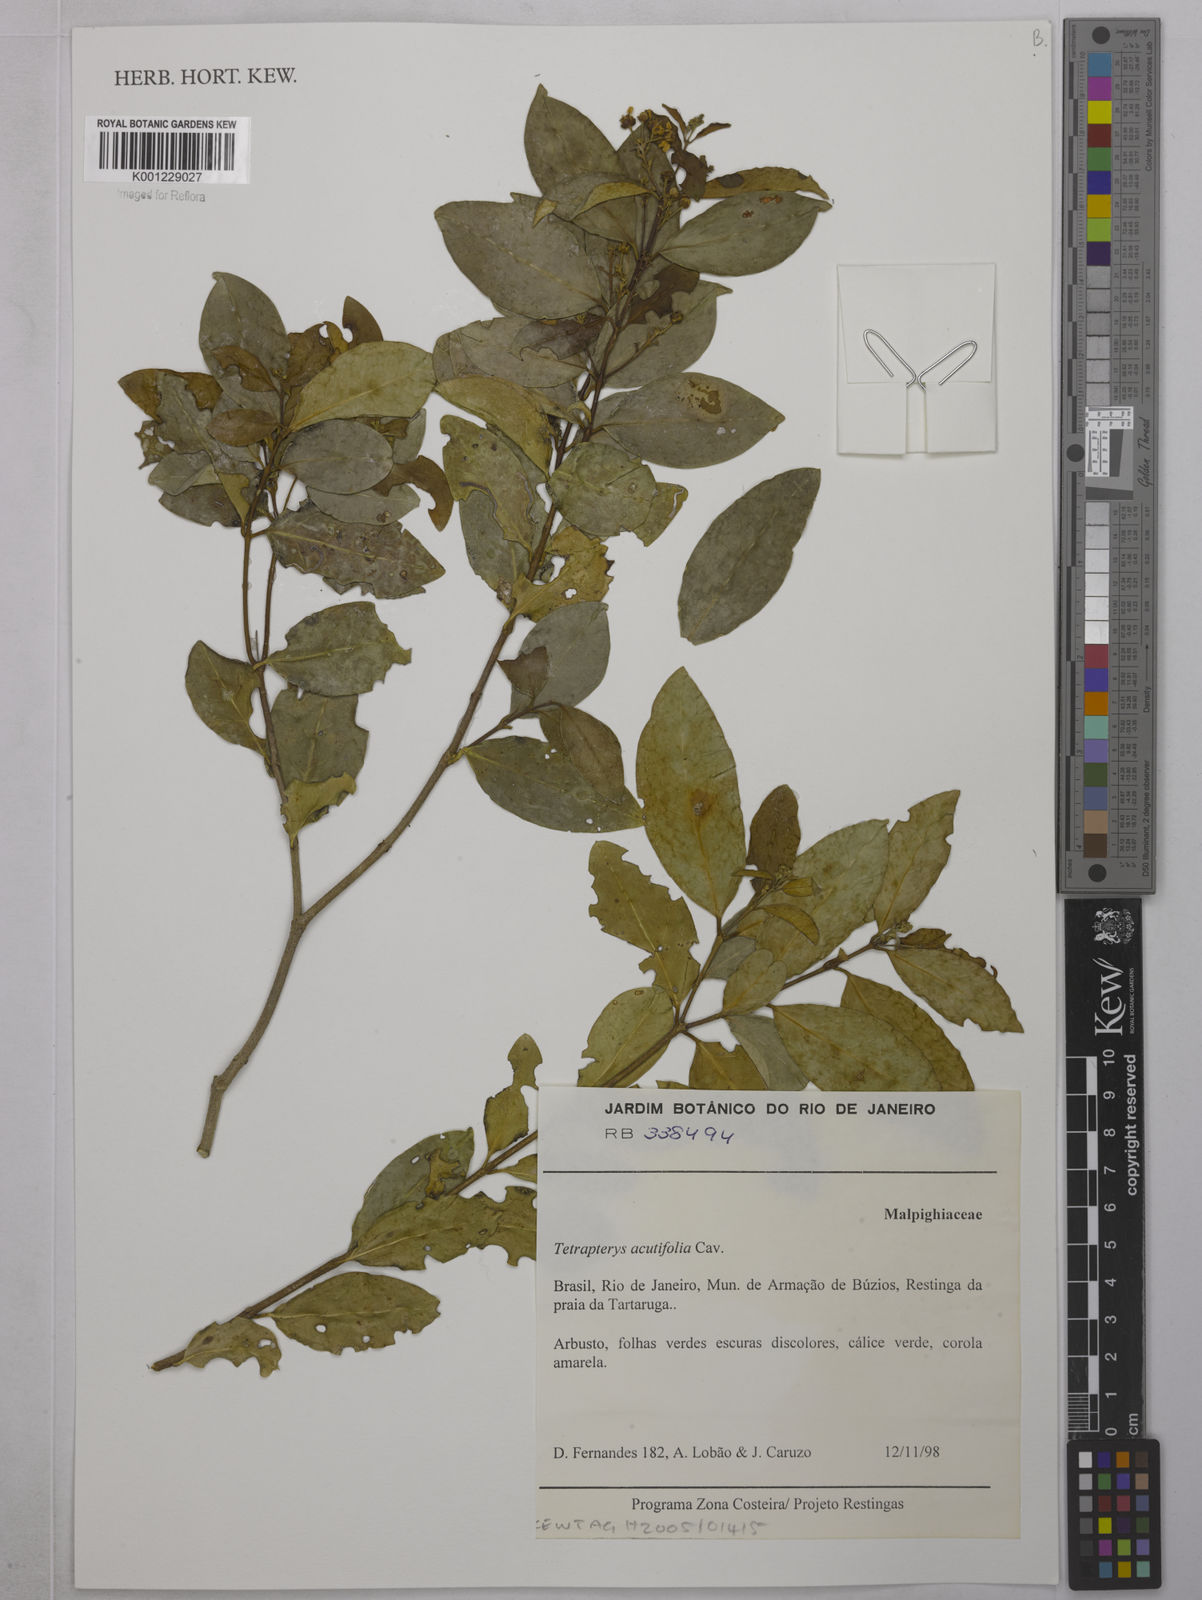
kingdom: Plantae
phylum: Tracheophyta
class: Magnoliopsida
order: Malpighiales
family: Malpighiaceae
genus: Niedenzuella
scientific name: Niedenzuella acutifolia
